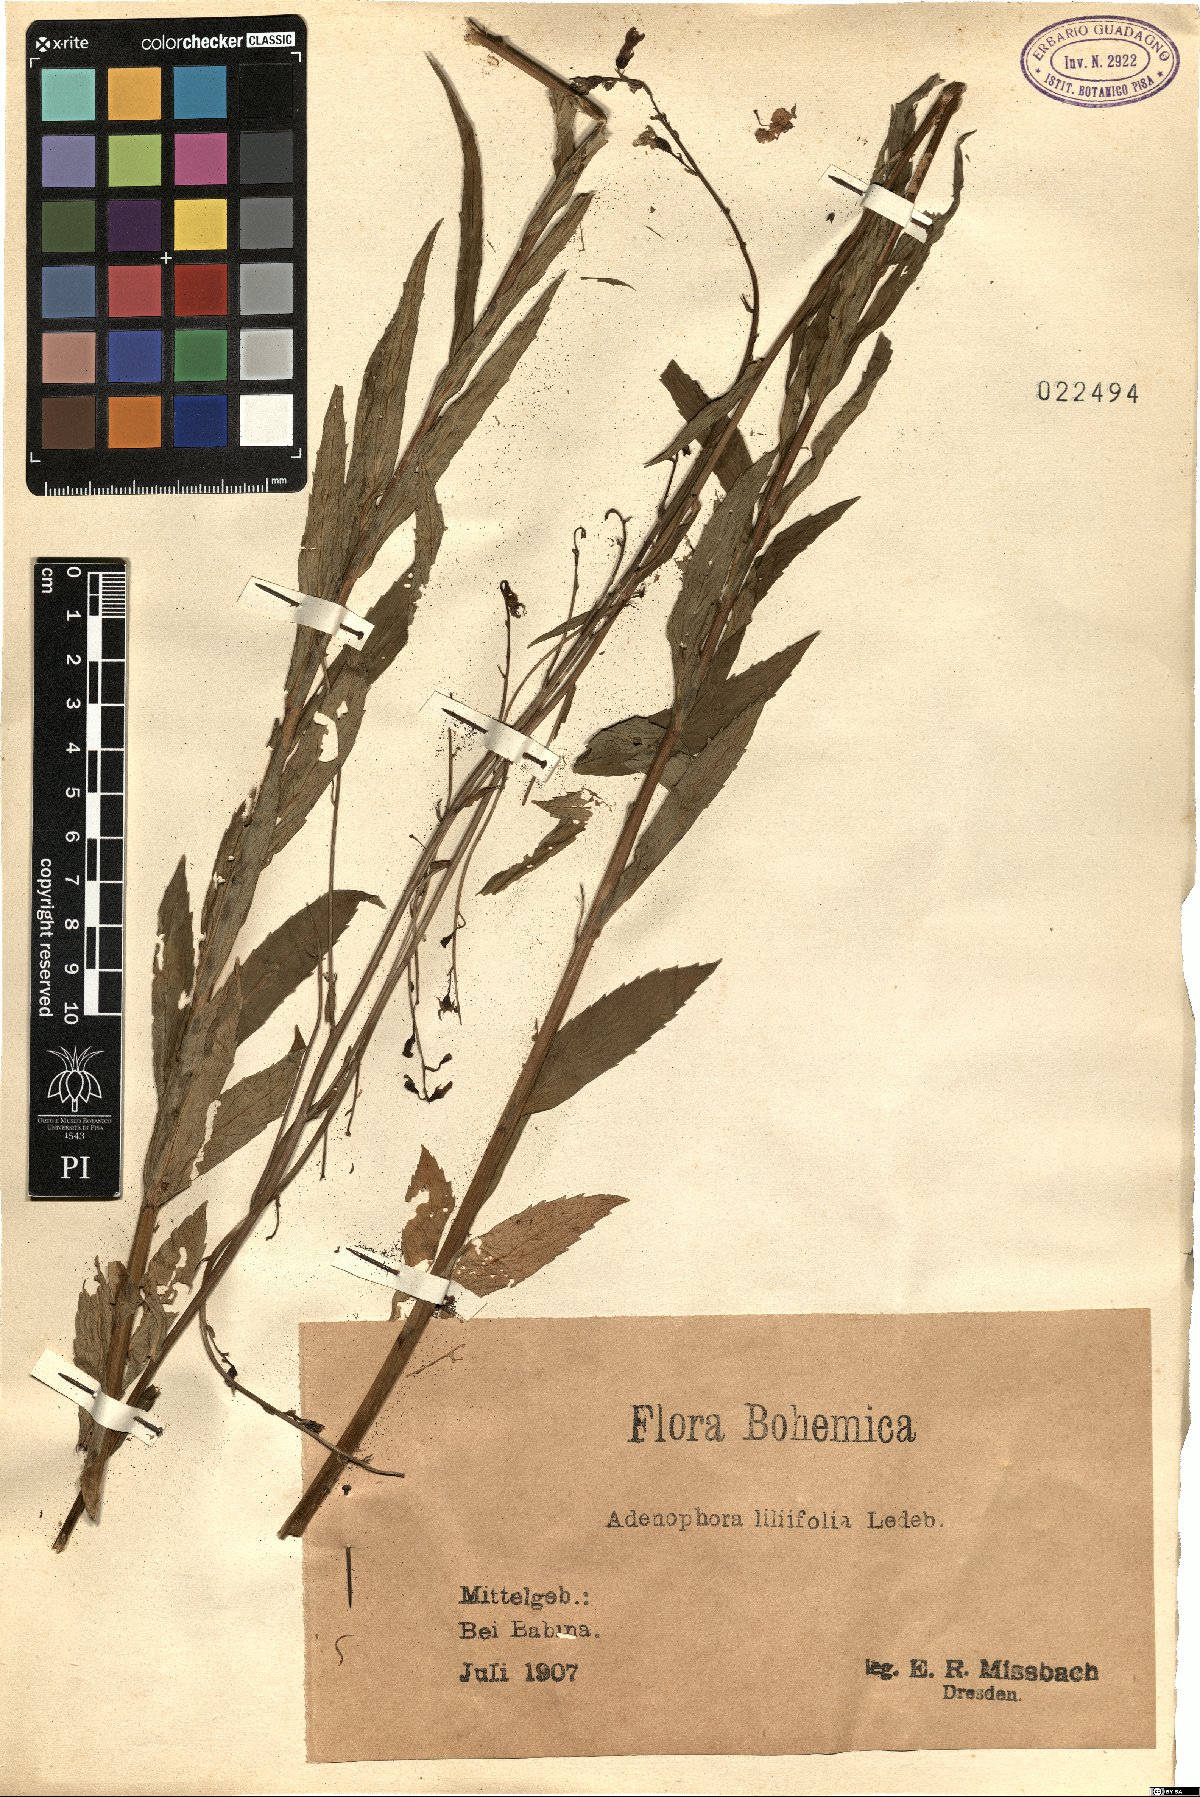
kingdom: Plantae
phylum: Tracheophyta
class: Magnoliopsida
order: Asterales
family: Campanulaceae
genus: Adenophora
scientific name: Adenophora liliifolia
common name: Lilyleaf ladybells
